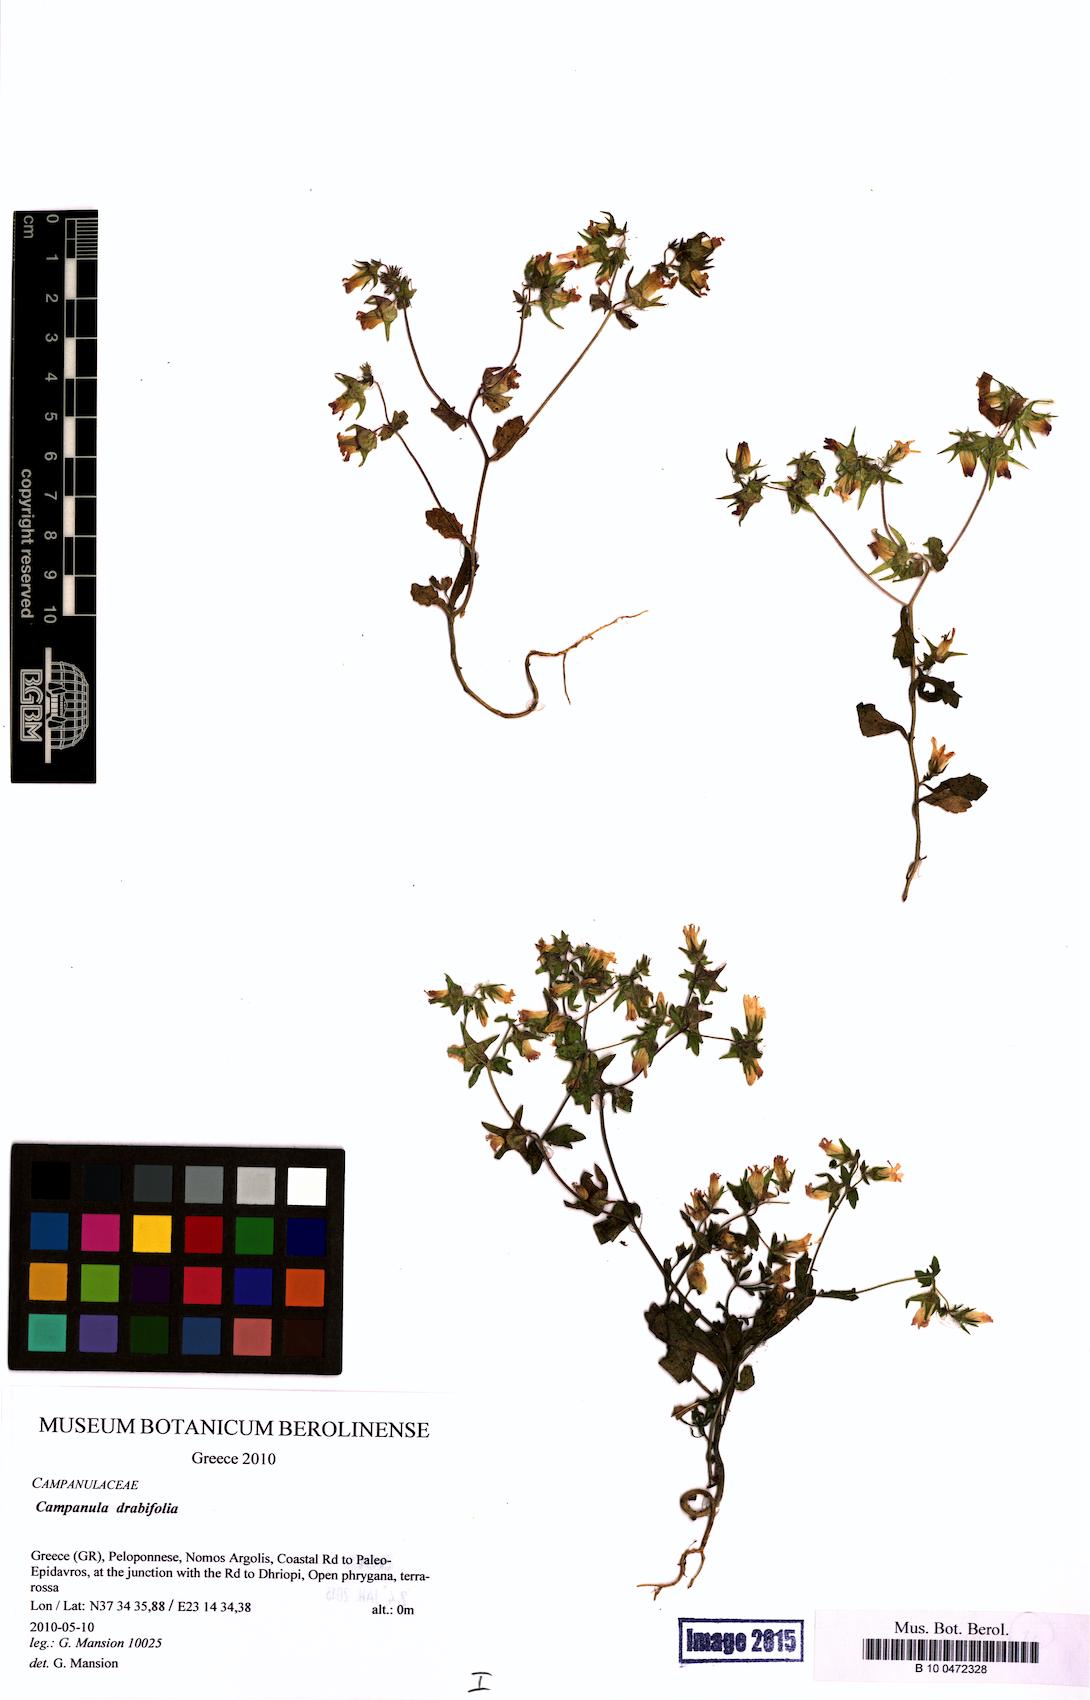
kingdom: Plantae
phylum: Tracheophyta
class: Magnoliopsida
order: Asterales
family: Campanulaceae
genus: Campanula
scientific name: Campanula drabifolia
